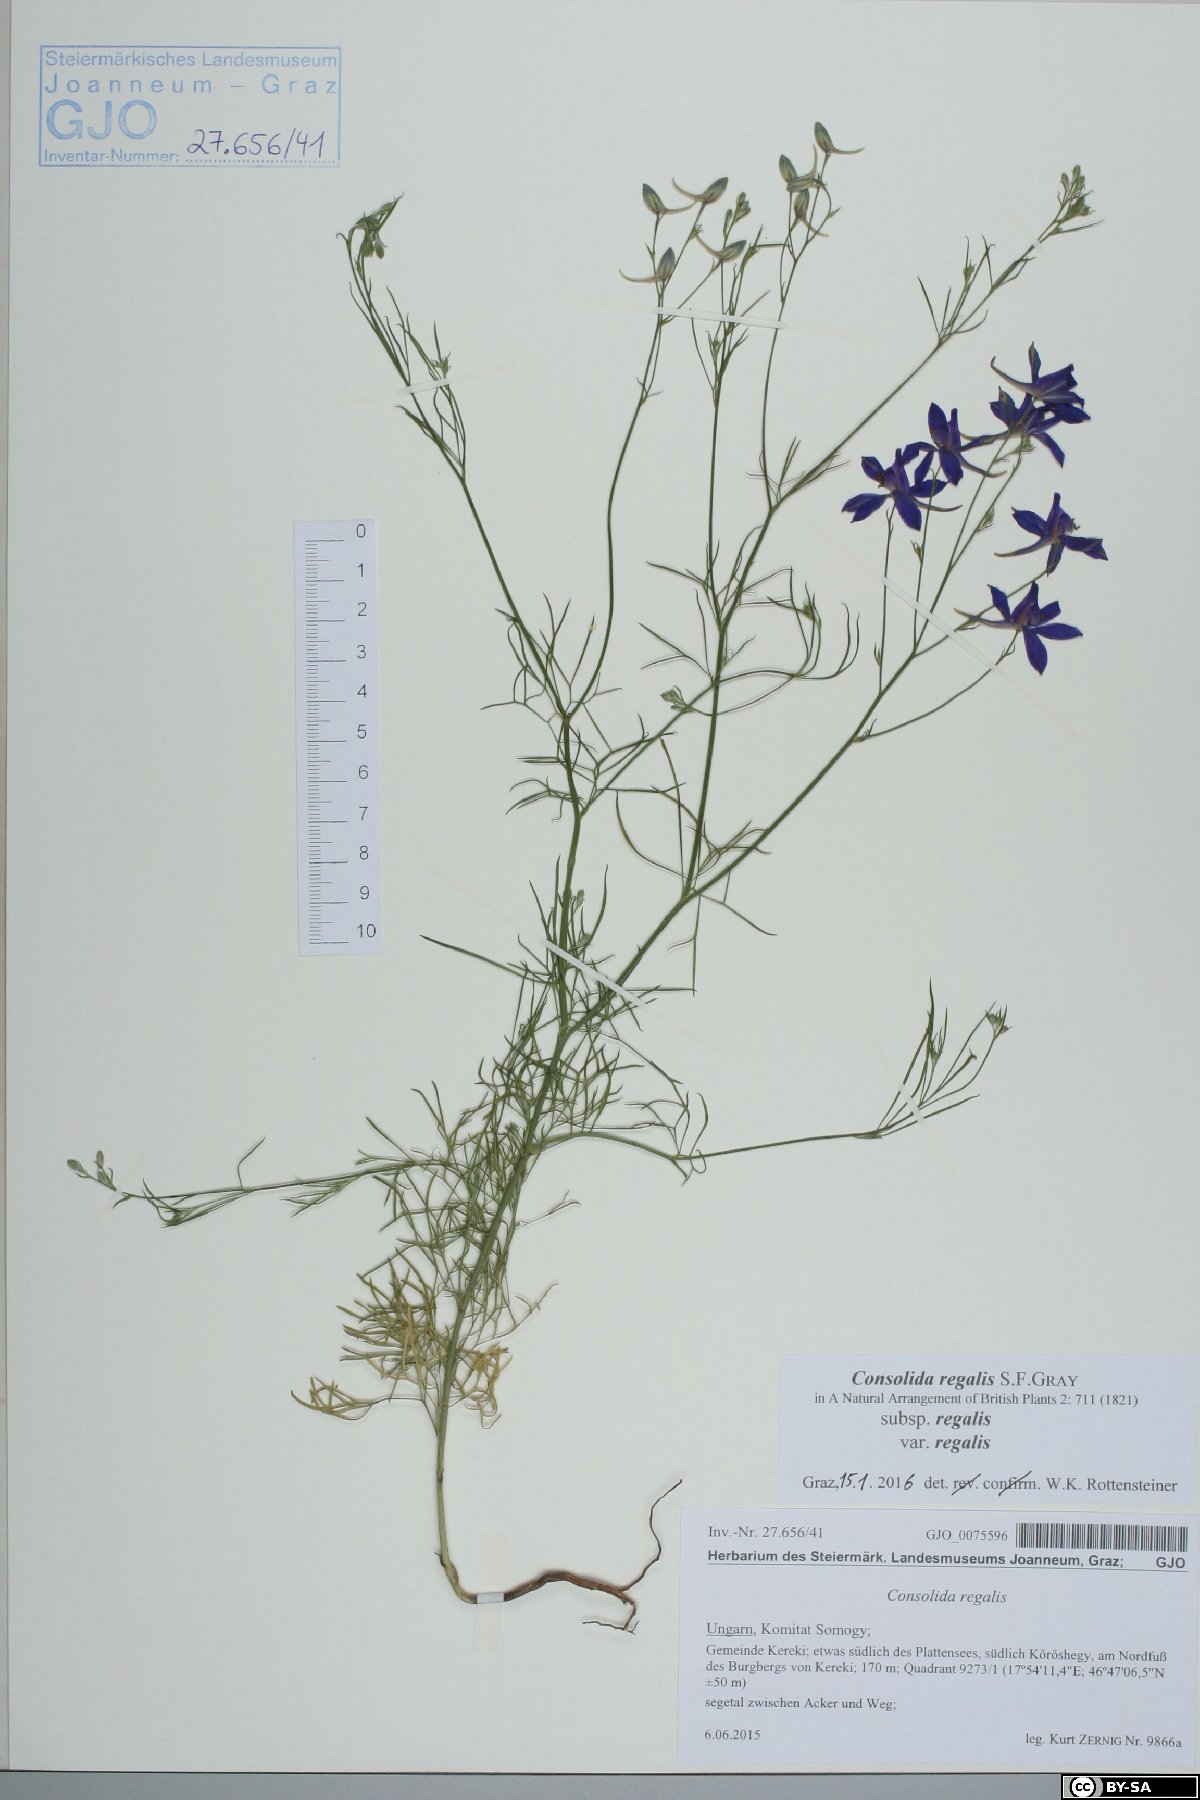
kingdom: Plantae
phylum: Tracheophyta
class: Magnoliopsida
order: Ranunculales
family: Ranunculaceae
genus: Delphinium
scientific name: Delphinium consolida
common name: Branching larkspur
